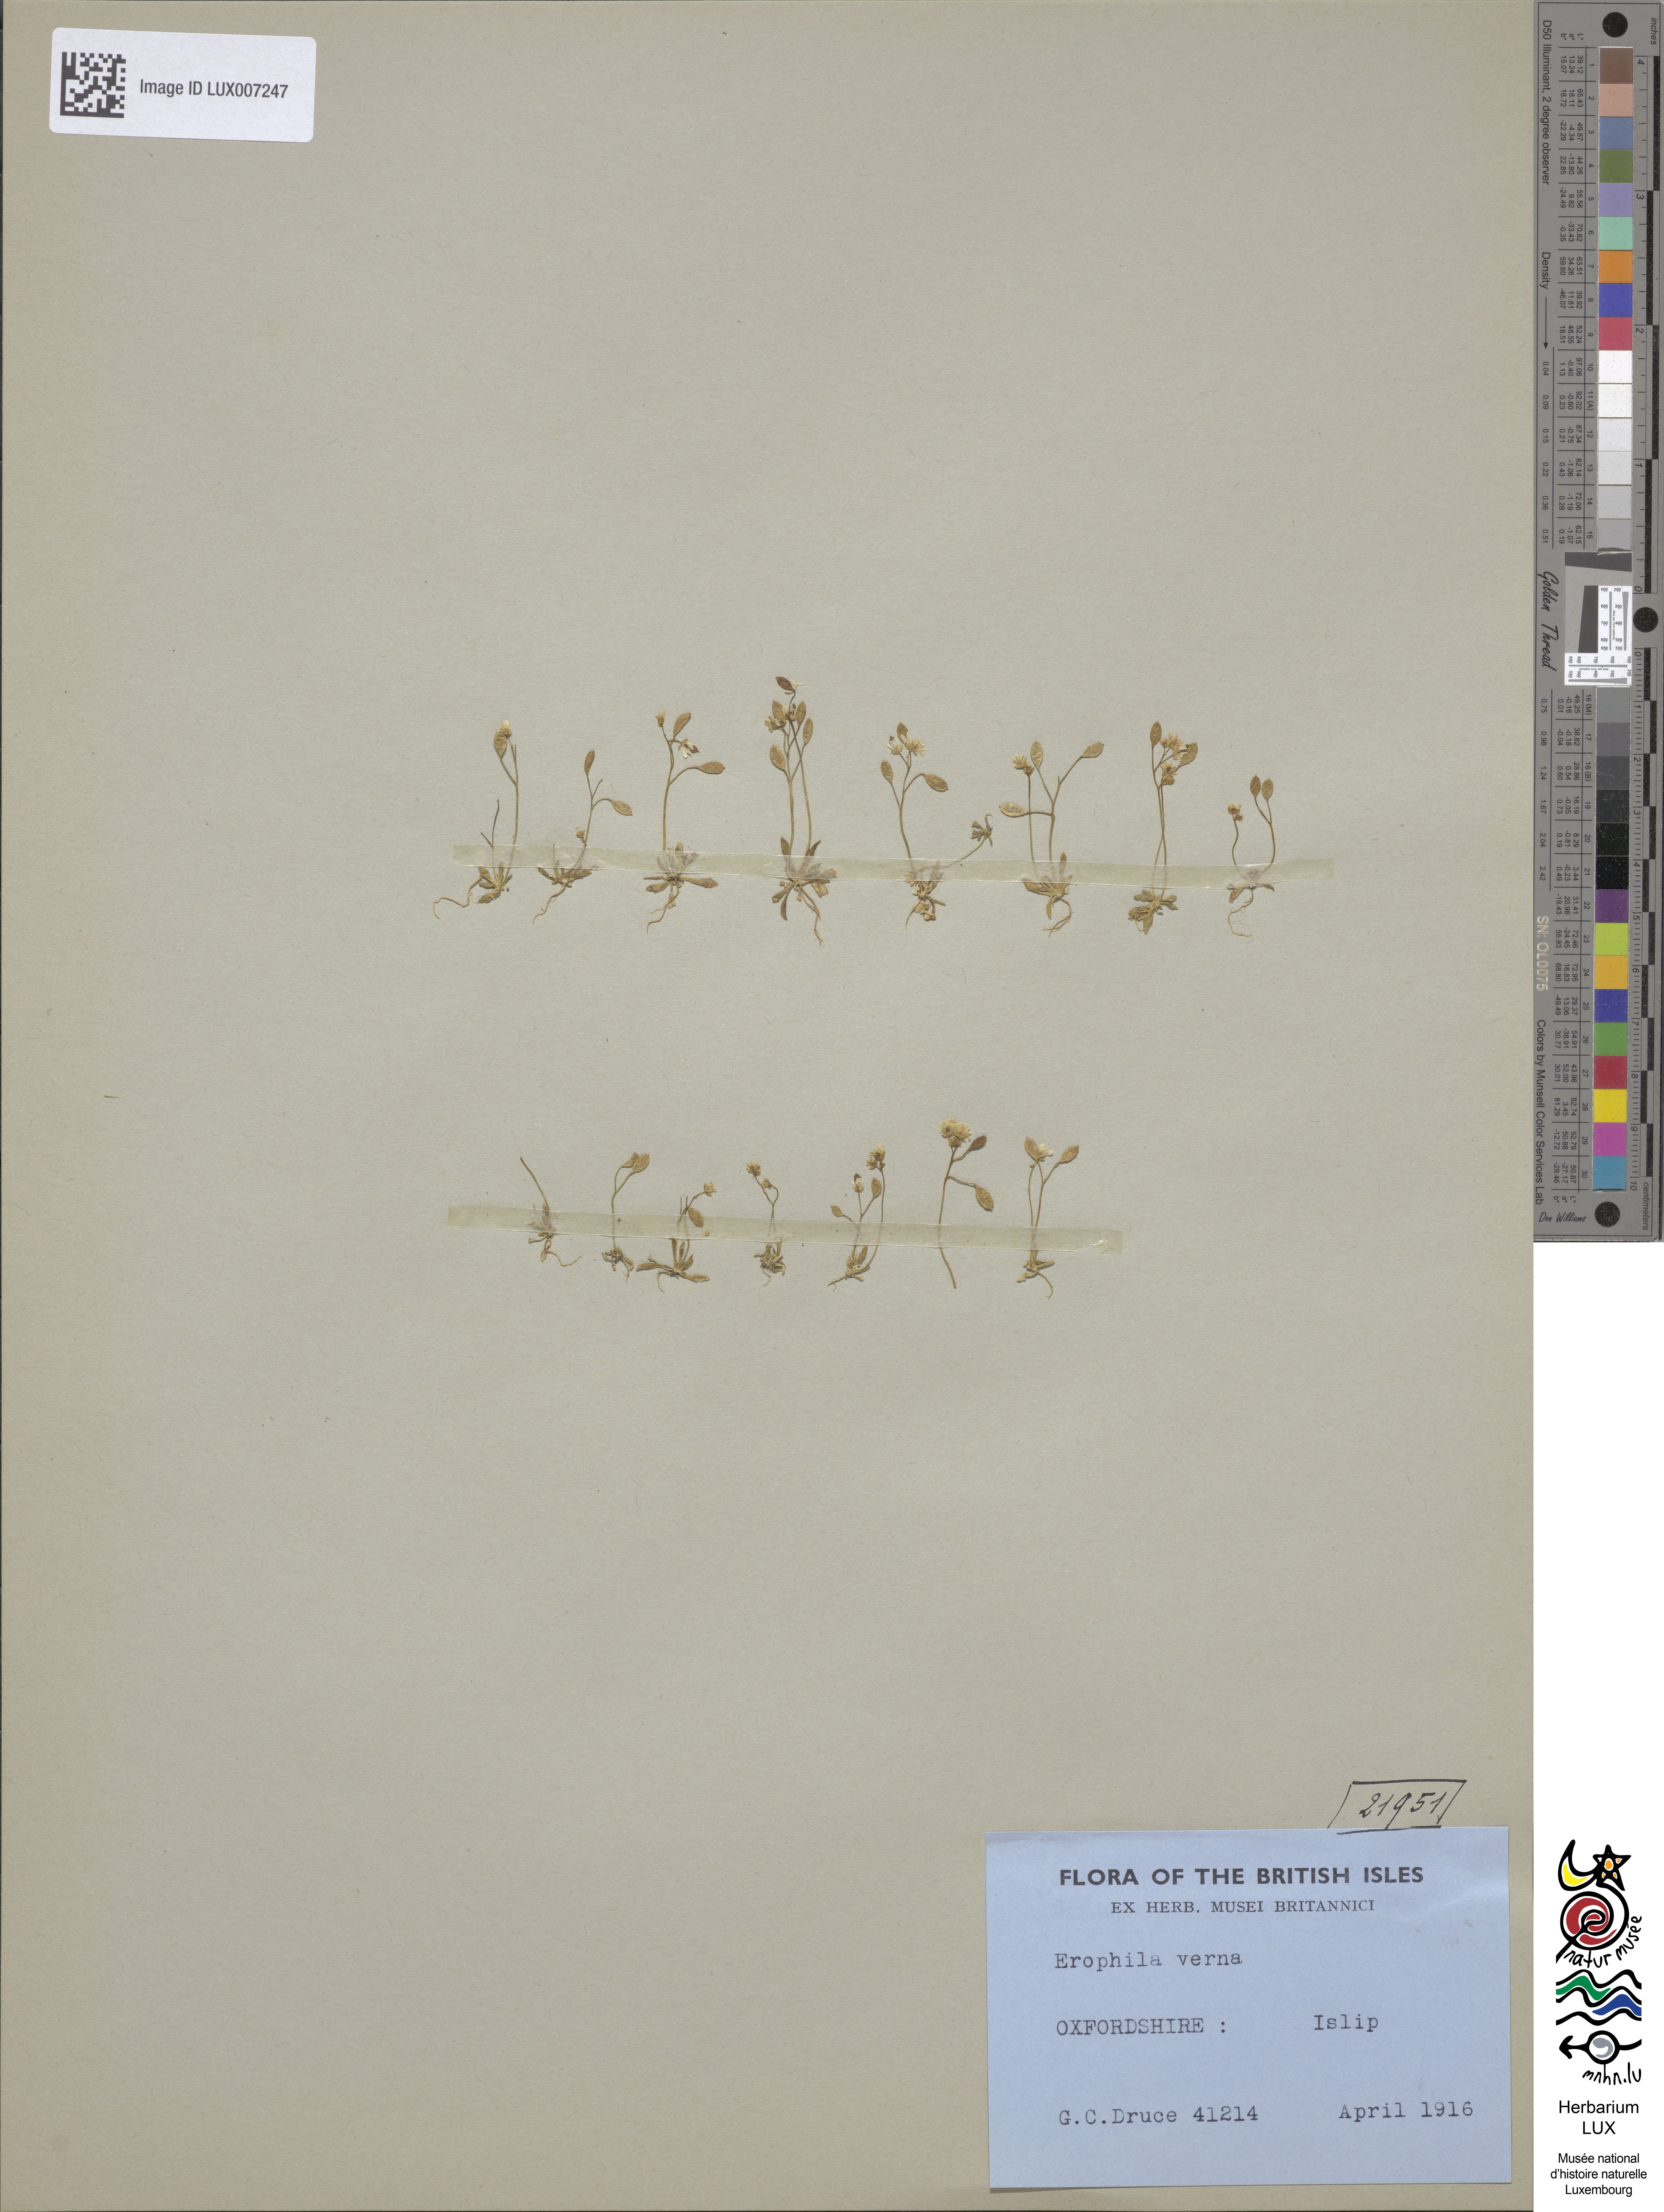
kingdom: Plantae
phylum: Tracheophyta
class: Magnoliopsida
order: Brassicales
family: Brassicaceae
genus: Draba
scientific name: Draba verna
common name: Spring draba
